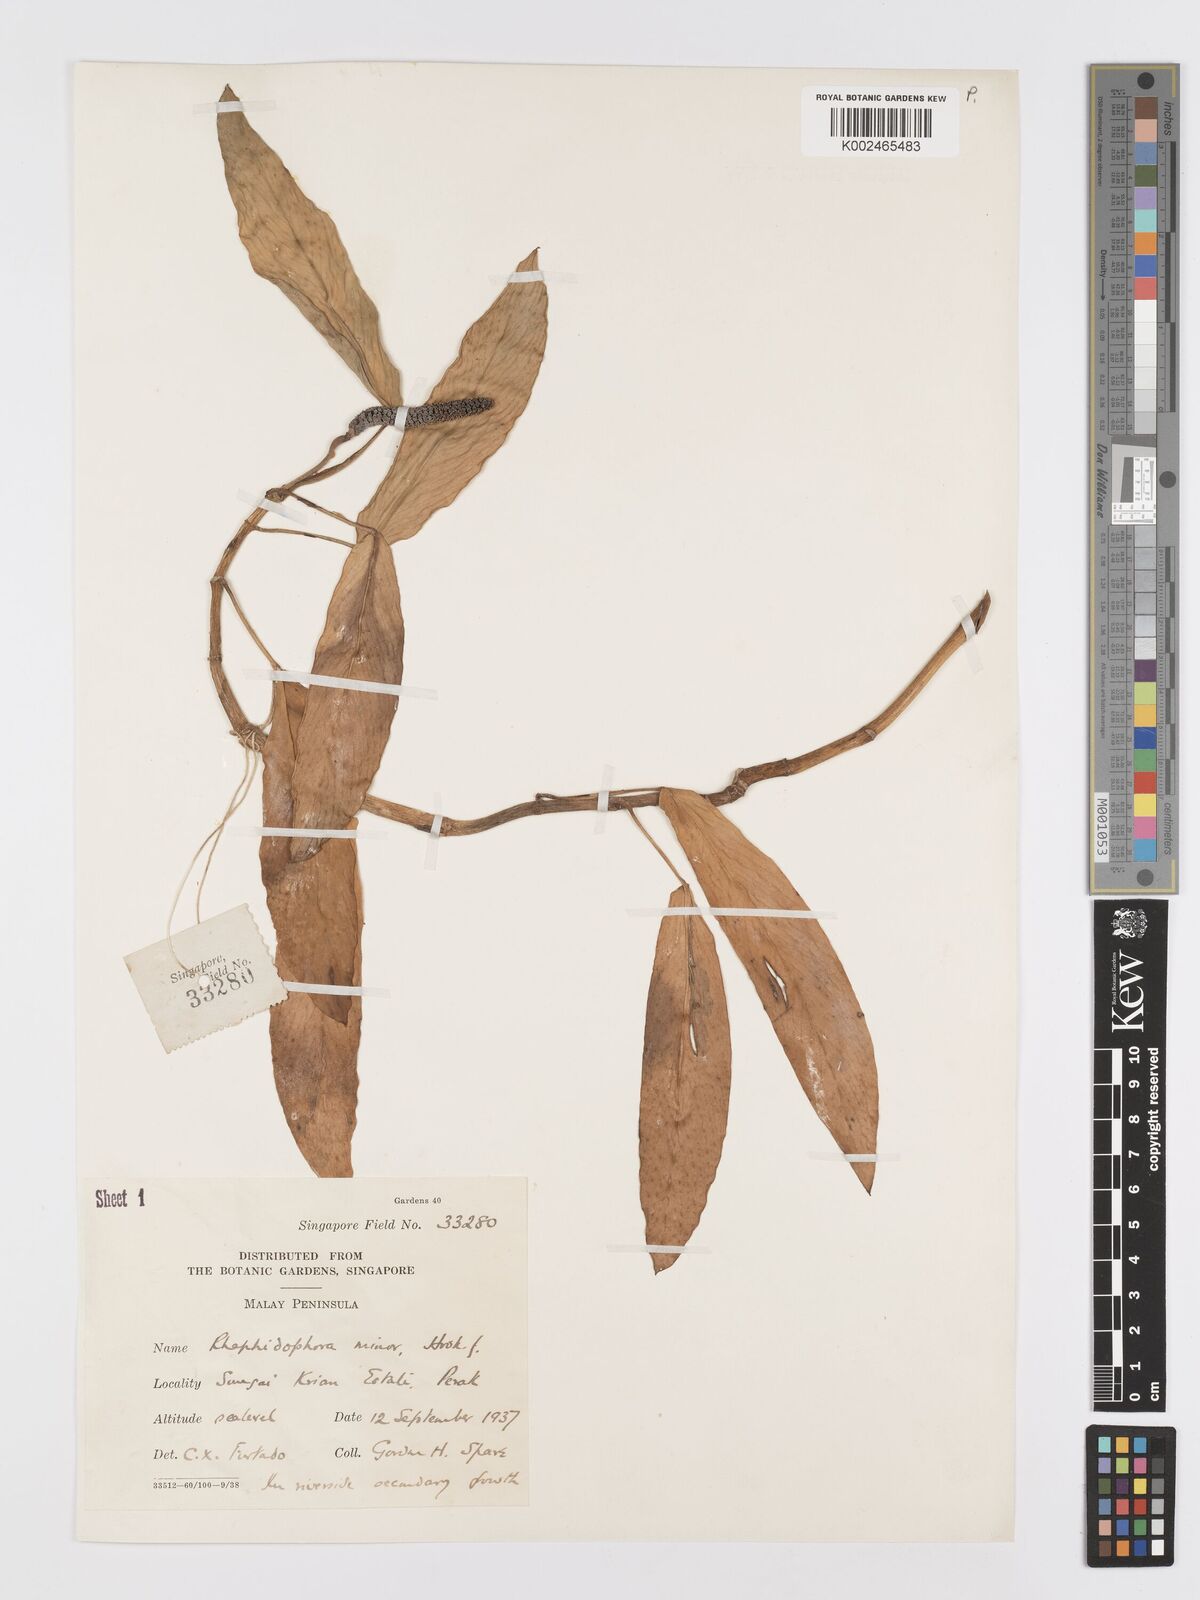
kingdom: Plantae
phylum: Tracheophyta
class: Liliopsida
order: Alismatales
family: Araceae
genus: Rhaphidophora
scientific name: Rhaphidophora minor
